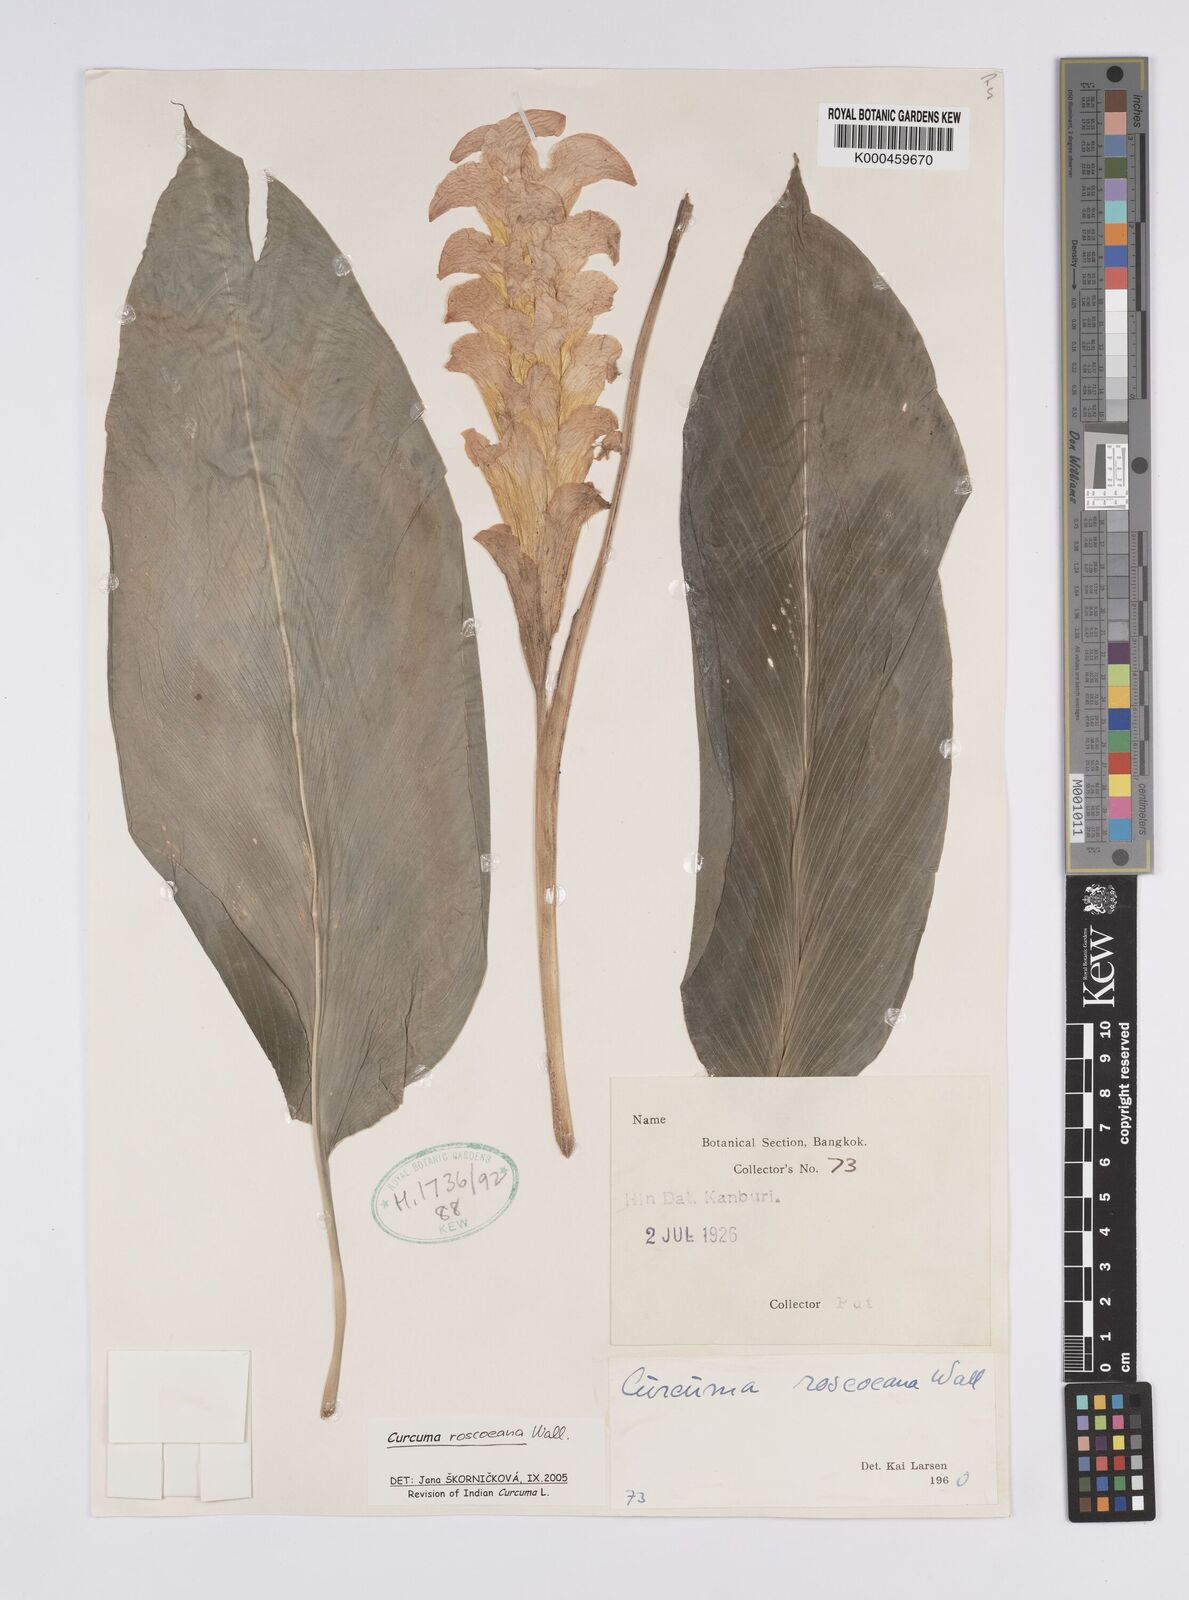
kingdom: Plantae
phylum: Tracheophyta
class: Liliopsida
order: Zingiberales
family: Zingiberaceae
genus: Curcuma
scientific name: Curcuma roscoeana
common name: Jewel of burma
